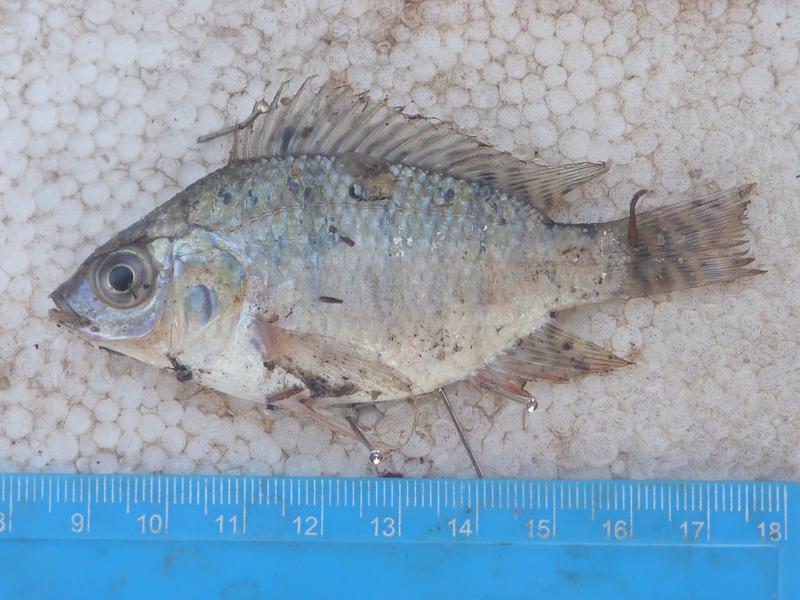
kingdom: Animalia
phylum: Chordata
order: Perciformes
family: Cichlidae
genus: Oreochromis
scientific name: Oreochromis niloticus
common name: Nile tilapia
